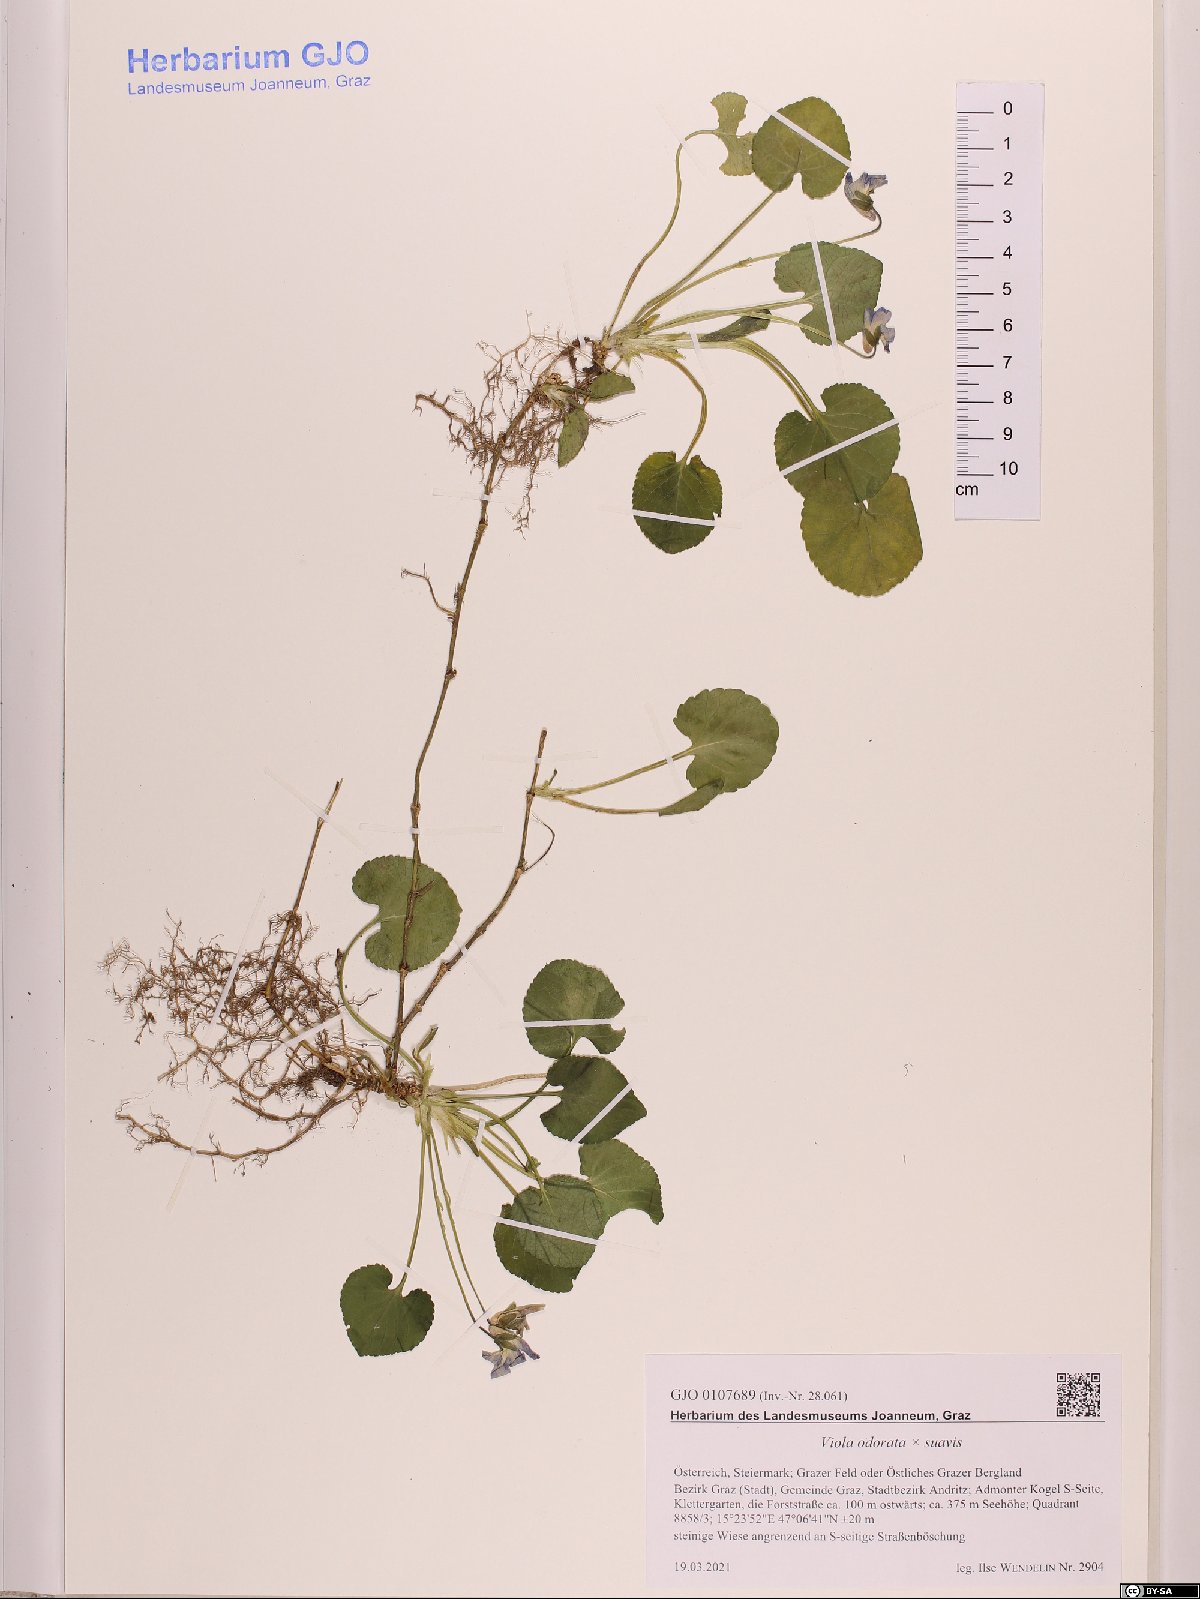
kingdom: Plantae
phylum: Tracheophyta
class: Magnoliopsida
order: Malpighiales
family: Violaceae
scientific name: Violaceae
